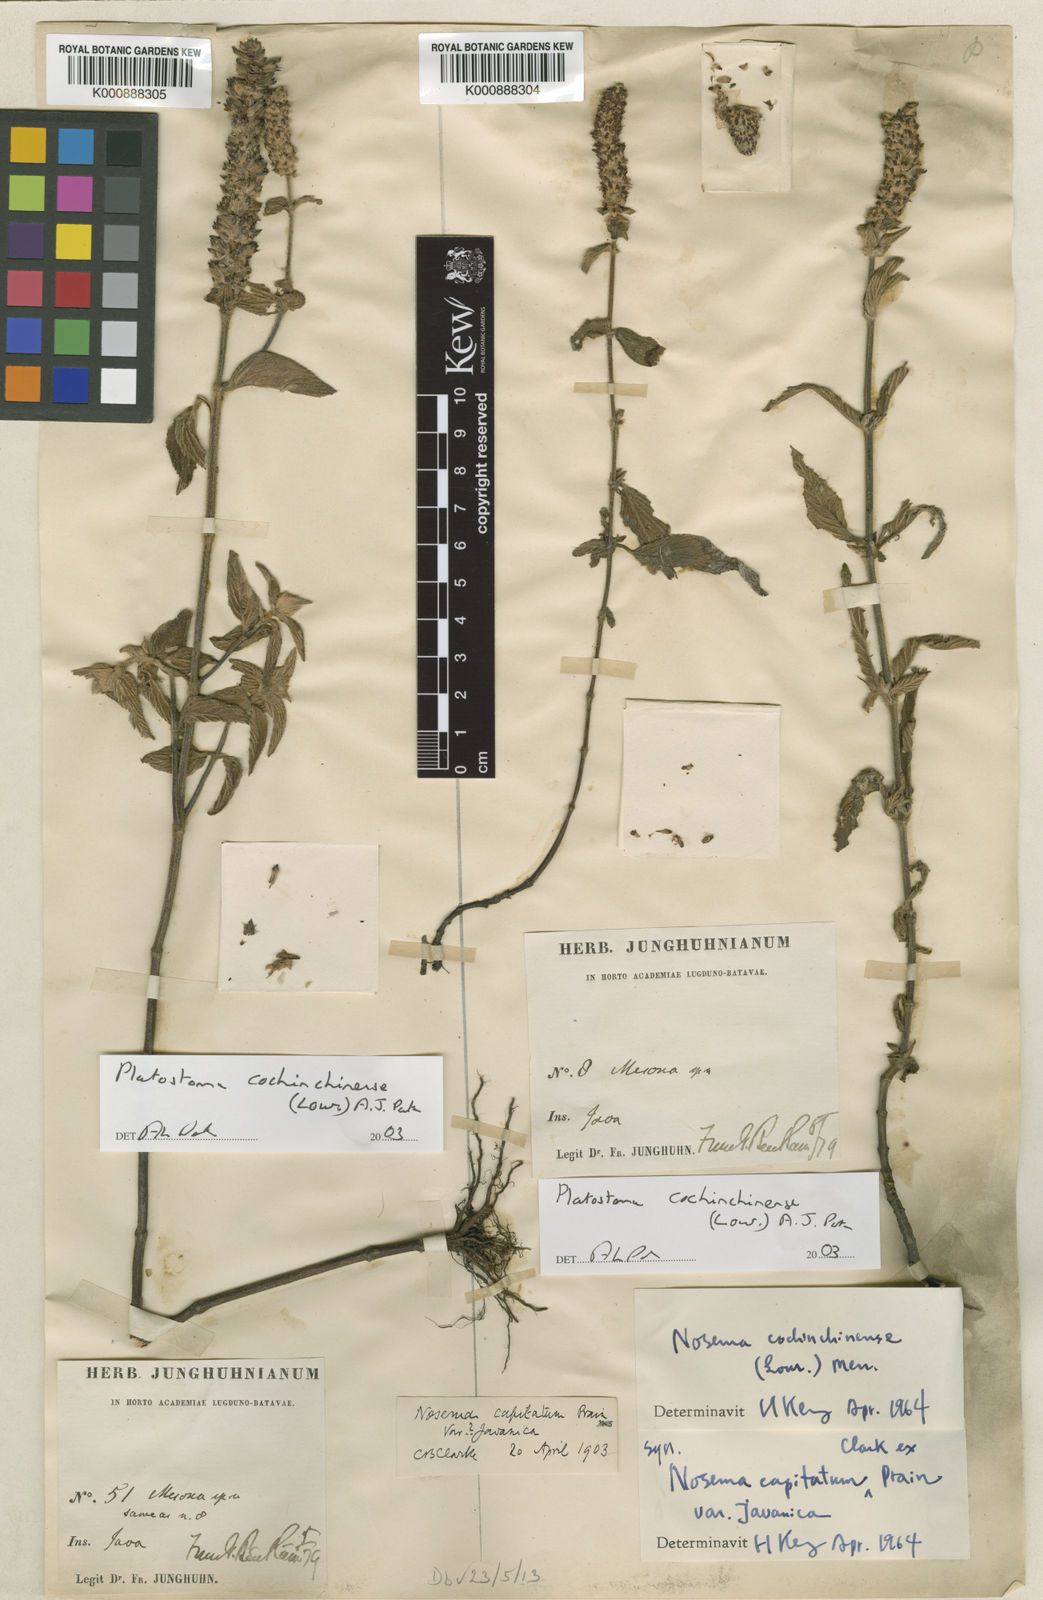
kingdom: Plantae
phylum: Tracheophyta
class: Magnoliopsida
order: Lamiales
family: Lamiaceae
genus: Platostoma
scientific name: Platostoma cochinchinense
